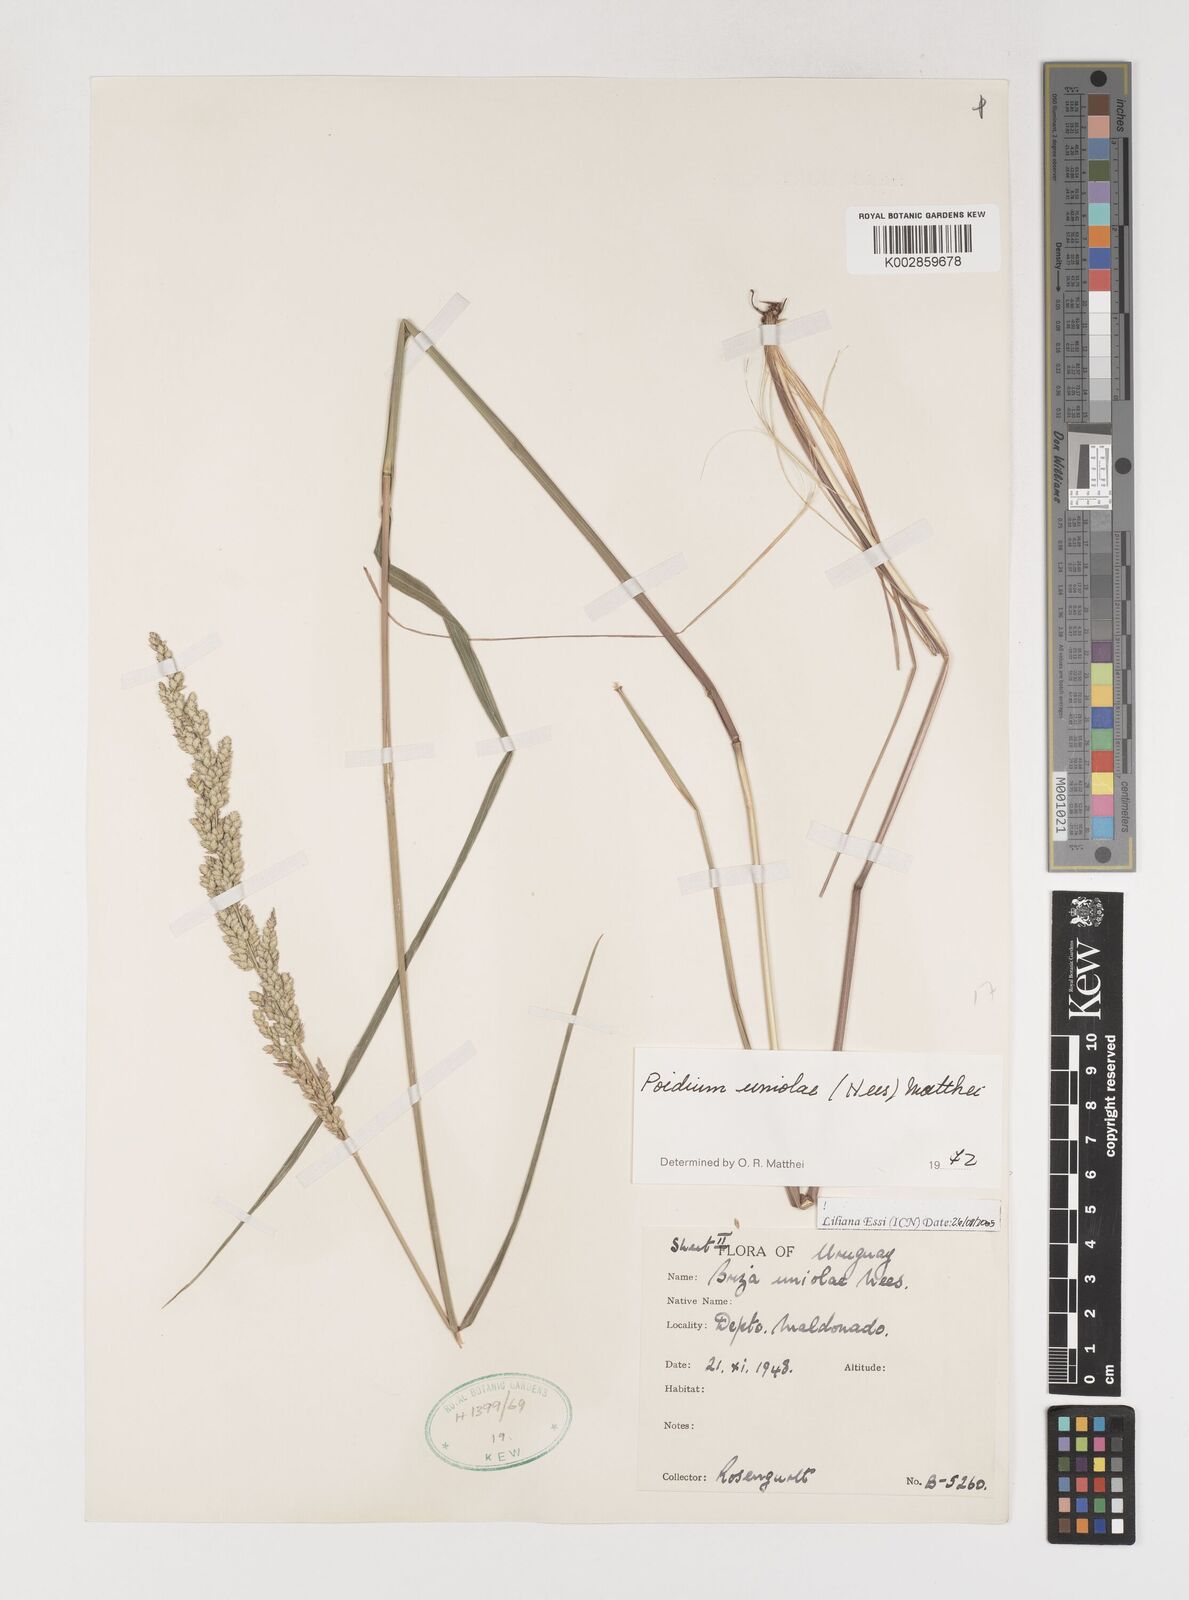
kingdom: Plantae
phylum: Tracheophyta
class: Liliopsida
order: Poales
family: Poaceae
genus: Poidium
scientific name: Poidium uniolae
